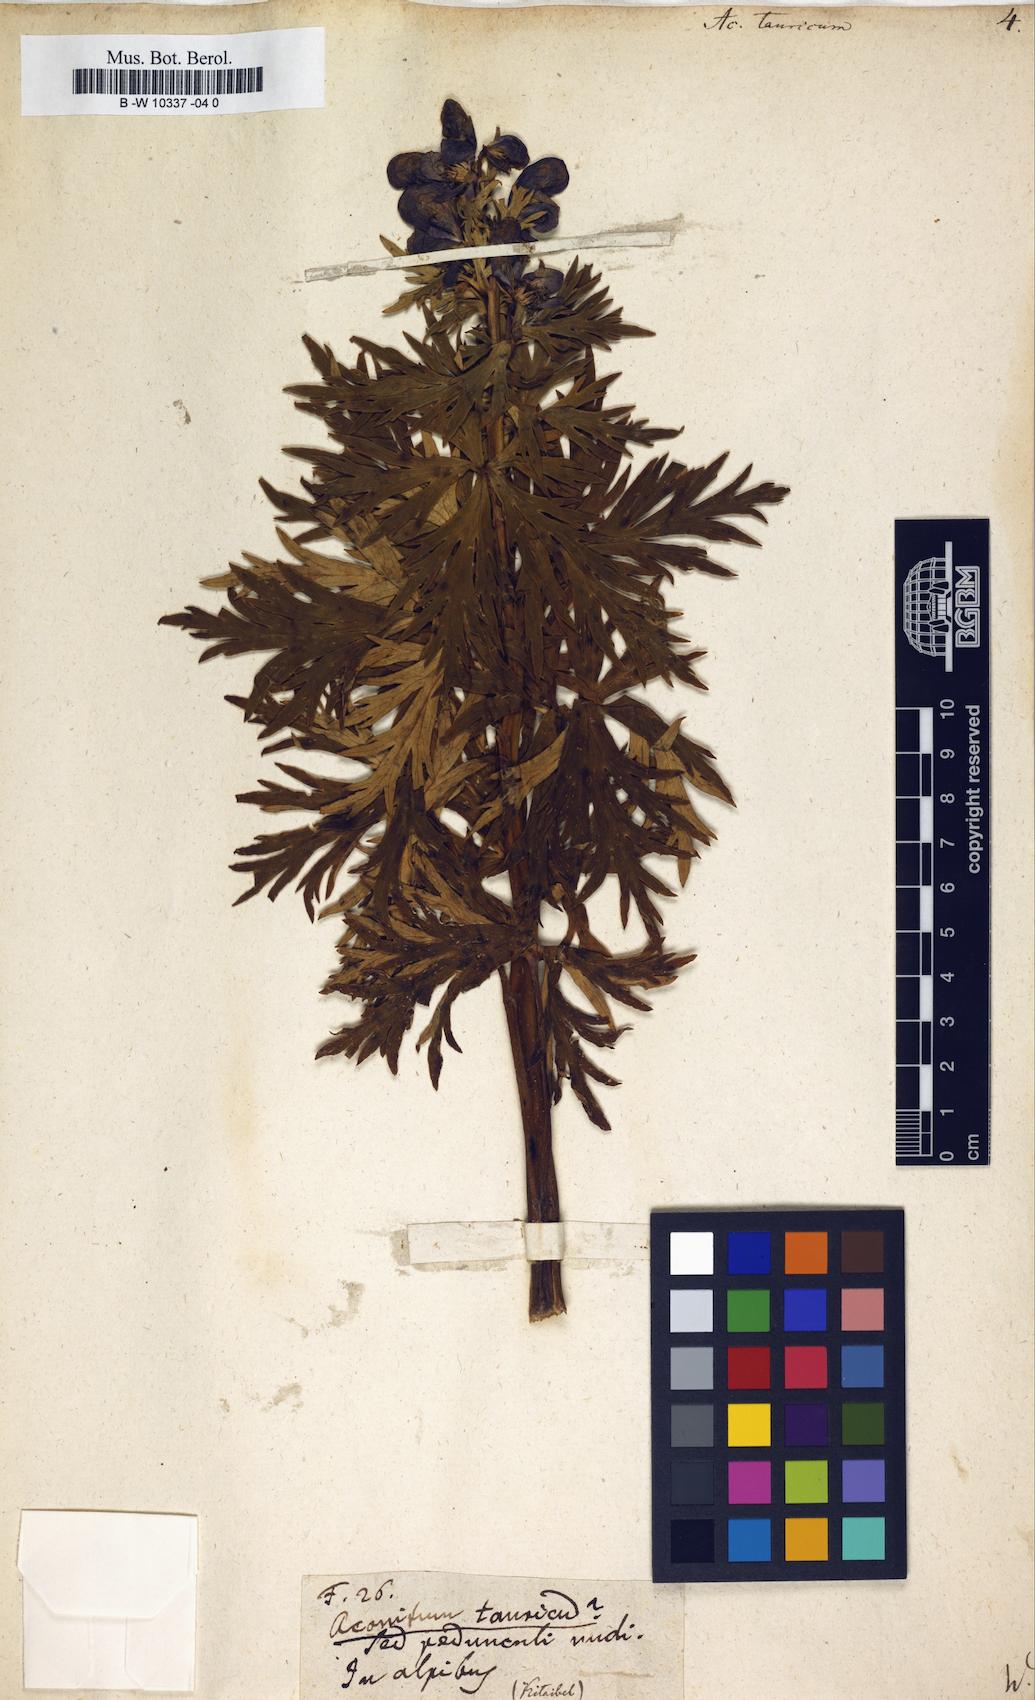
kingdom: Plantae
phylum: Tracheophyta
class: Magnoliopsida
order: Ranunculales
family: Ranunculaceae
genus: Aconitum
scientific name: Aconitum tauricum
